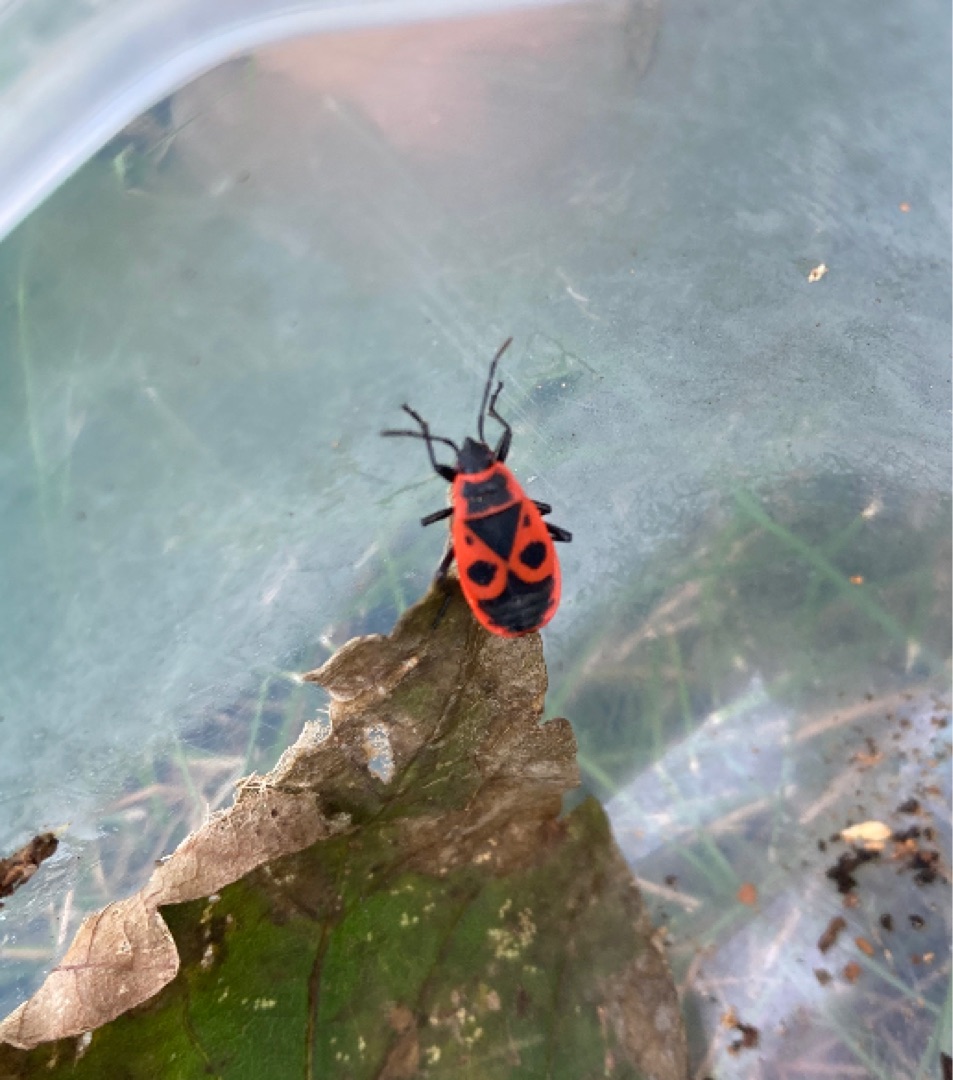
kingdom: Animalia
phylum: Arthropoda
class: Insecta
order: Hemiptera
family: Pyrrhocoridae
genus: Pyrrhocoris
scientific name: Pyrrhocoris apterus
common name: Ildtæge
